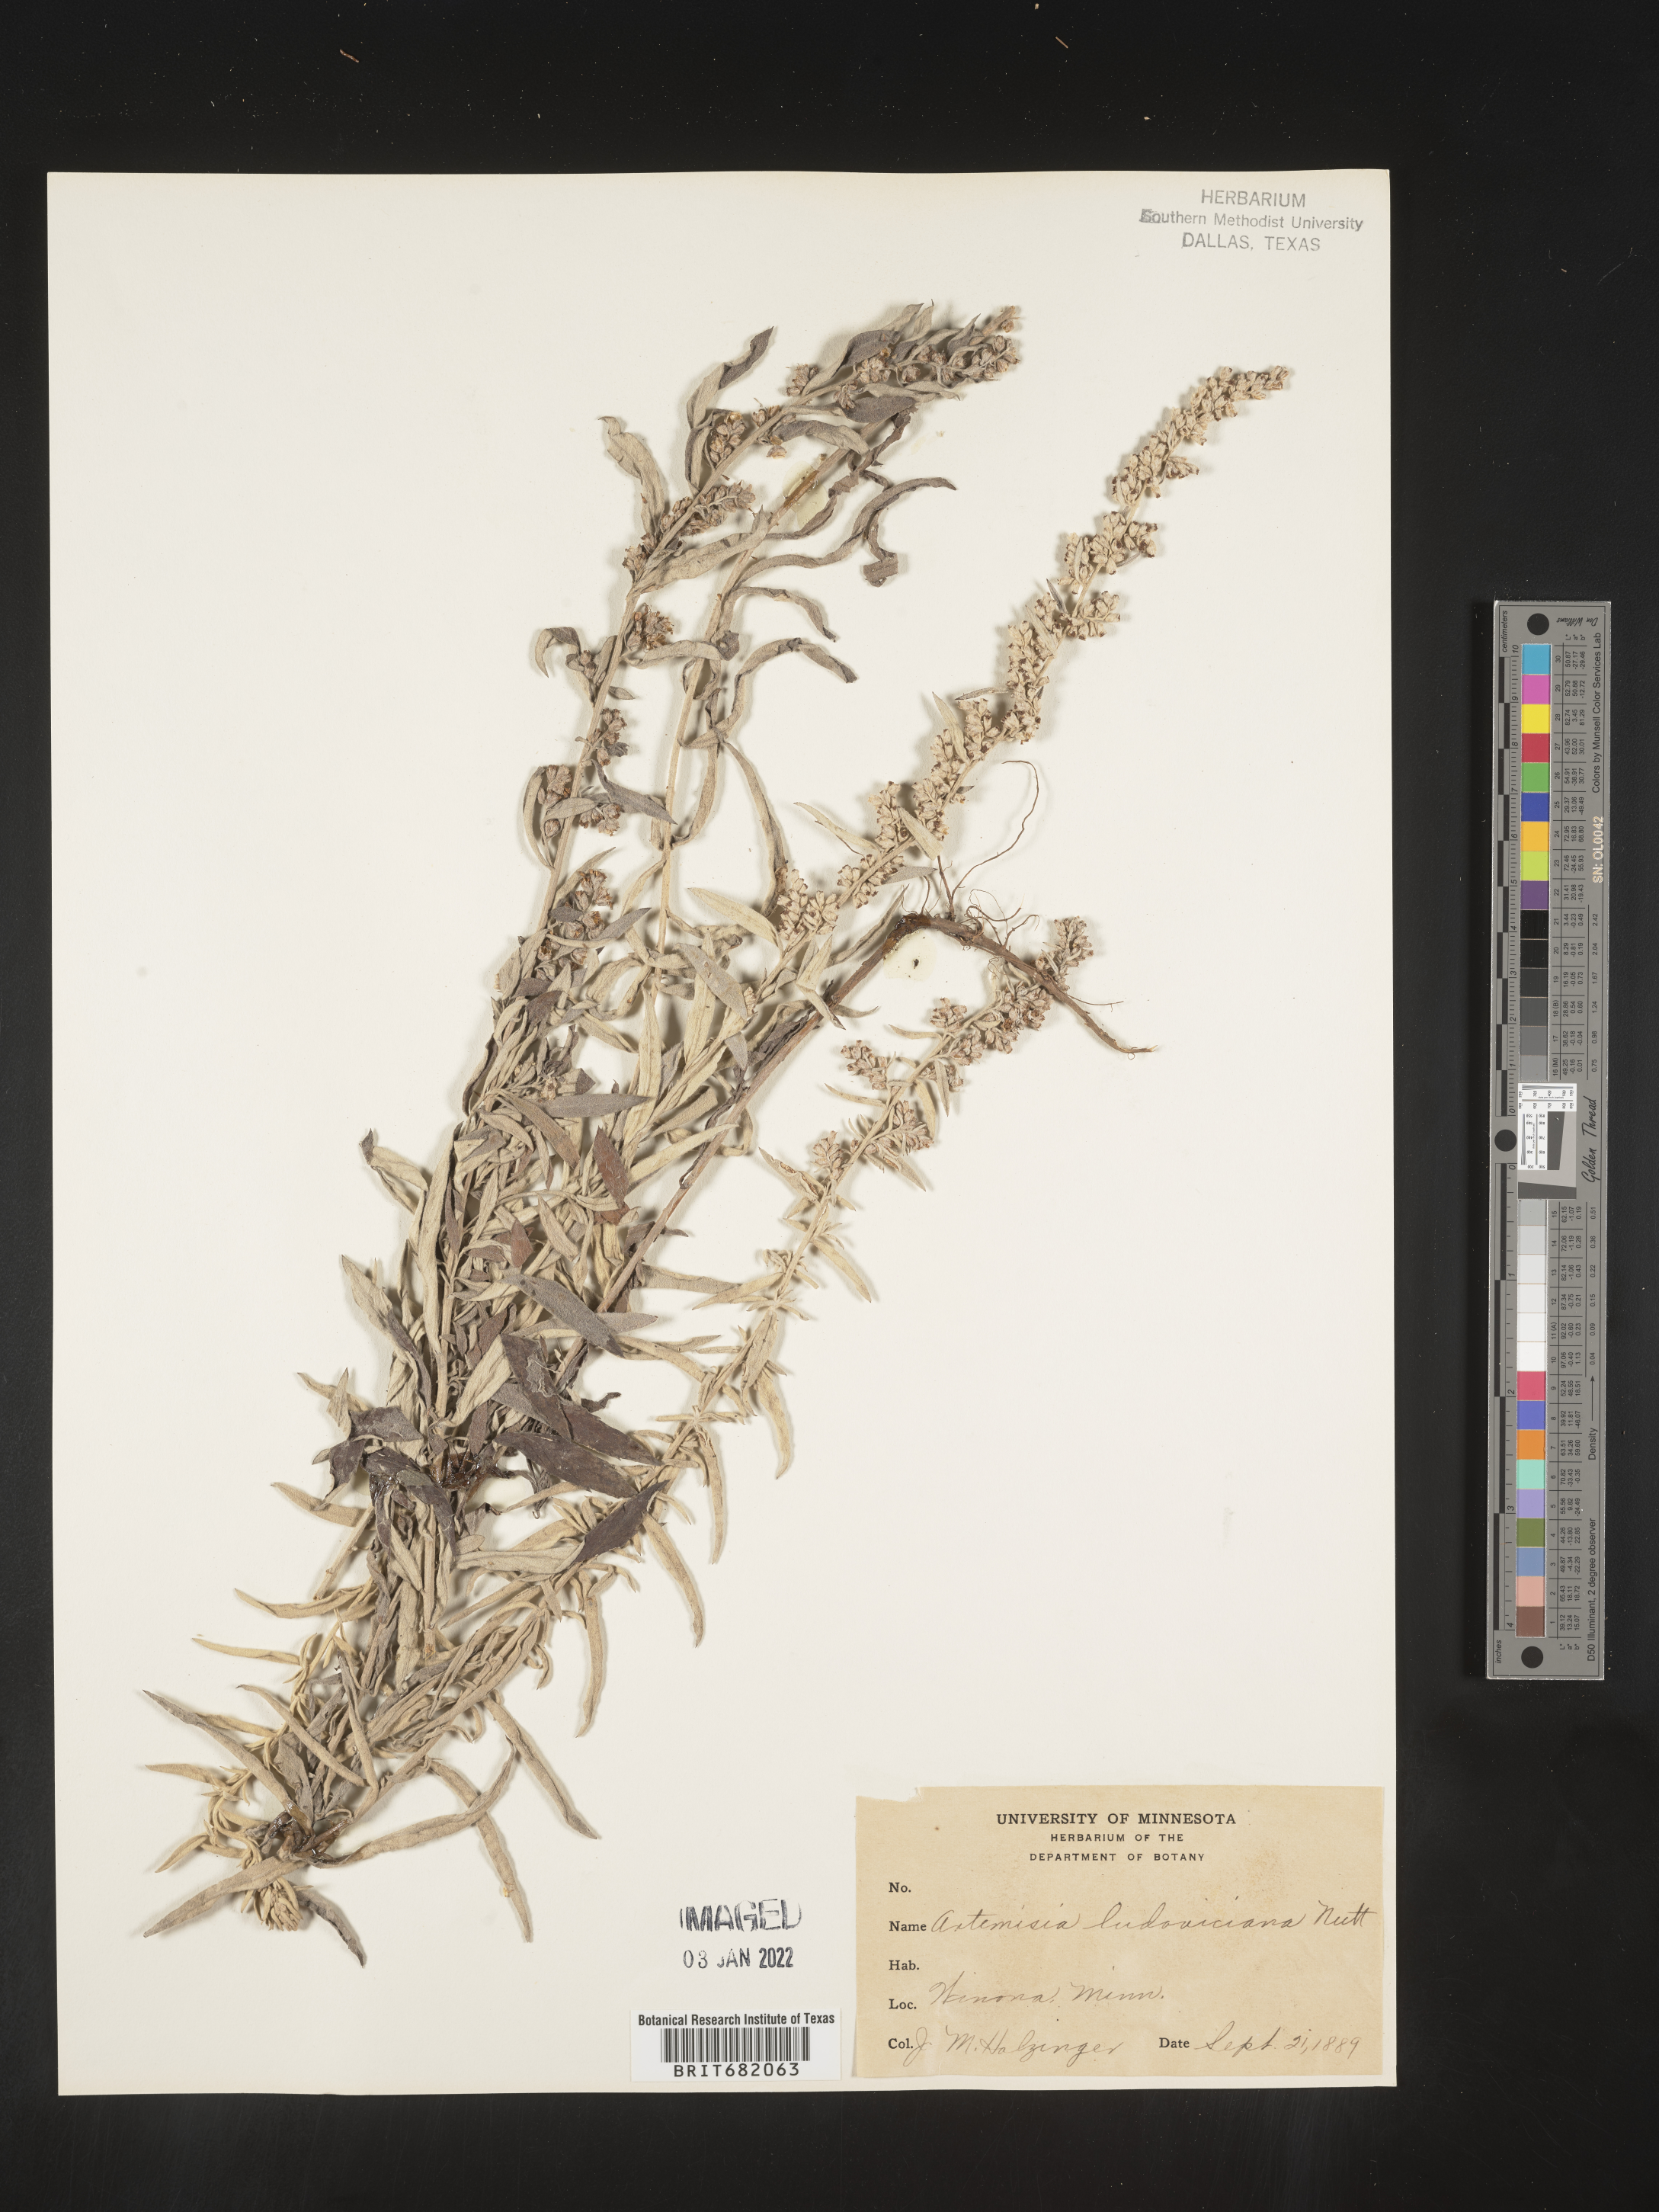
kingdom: Plantae
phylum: Tracheophyta
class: Magnoliopsida
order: Asterales
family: Asteraceae
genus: Artemisia
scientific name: Artemisia ludoviciana
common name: Western mugwort
